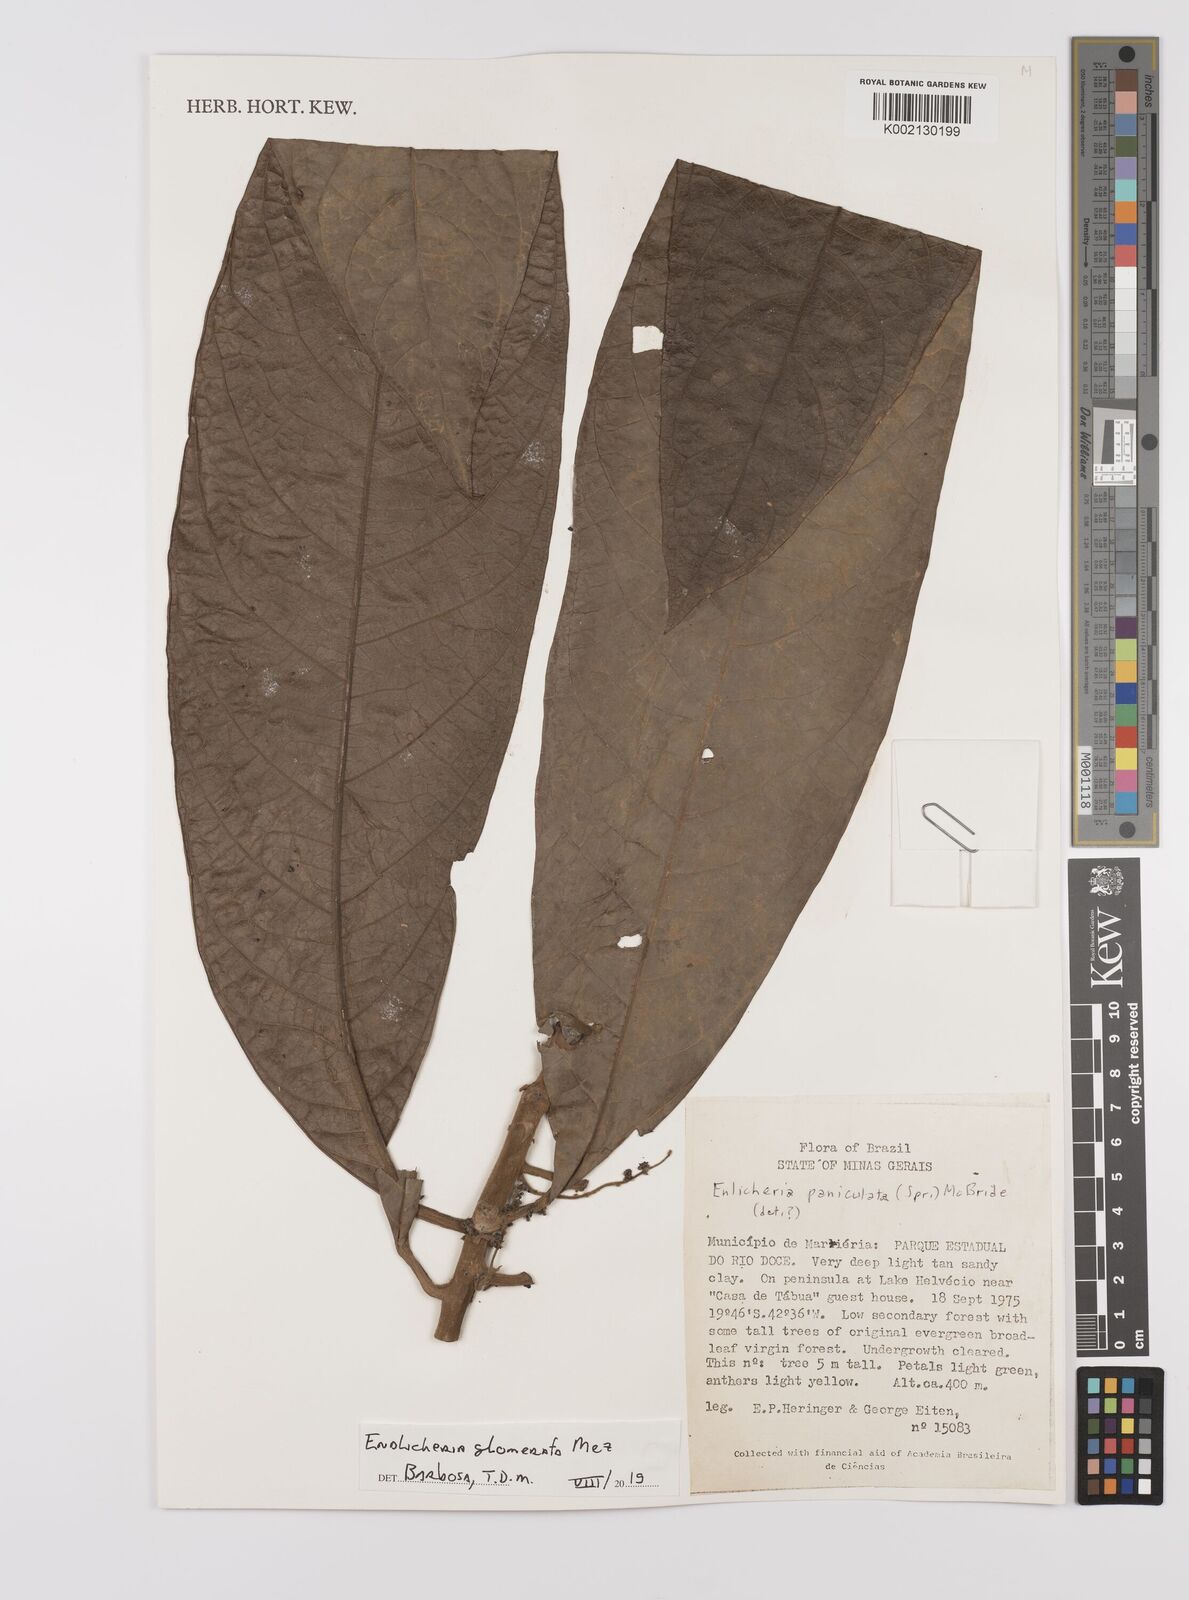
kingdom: Plantae
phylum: Tracheophyta
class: Magnoliopsida
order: Laurales
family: Lauraceae
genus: Endlicheria
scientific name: Endlicheria glomerata
